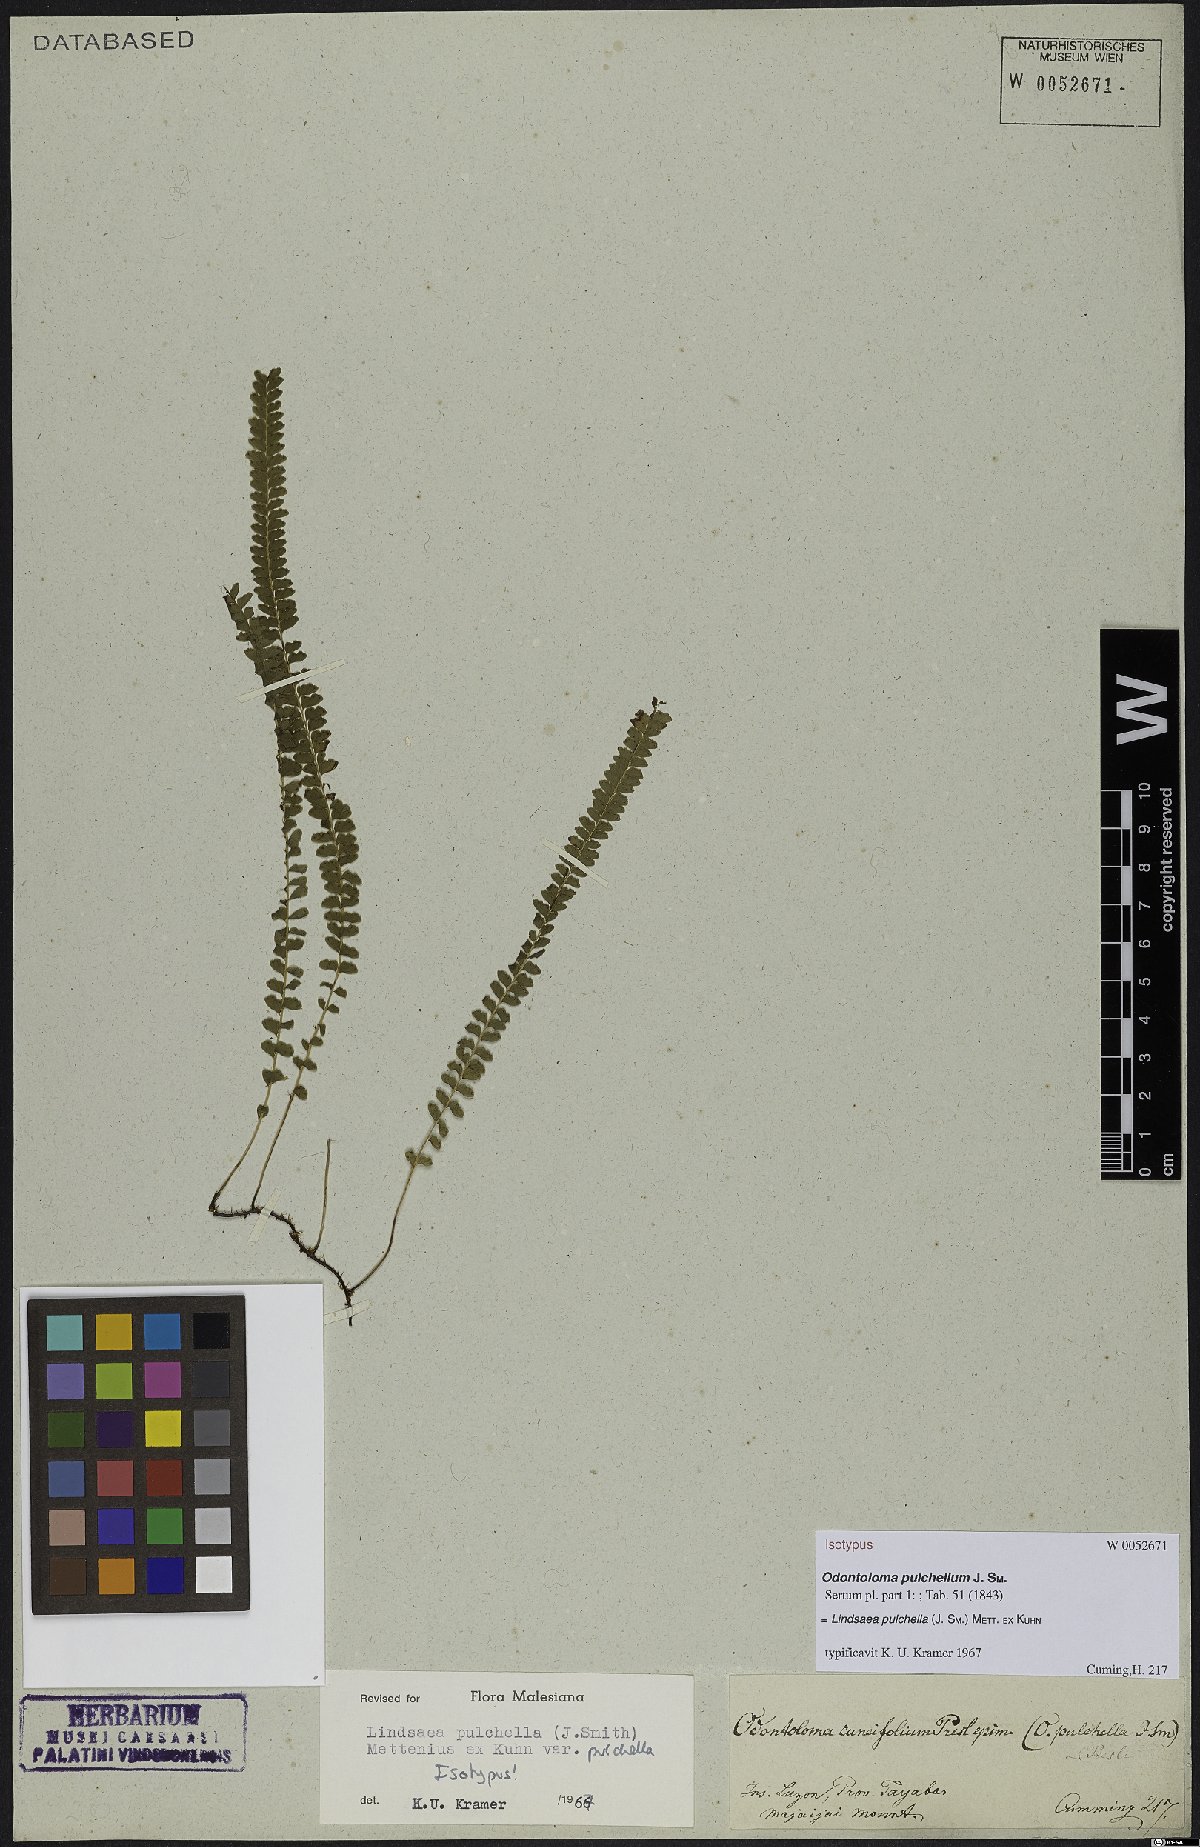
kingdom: Plantae
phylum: Tracheophyta
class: Polypodiopsida
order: Polypodiales
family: Lindsaeaceae
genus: Lindsaea
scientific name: Lindsaea pulchella
